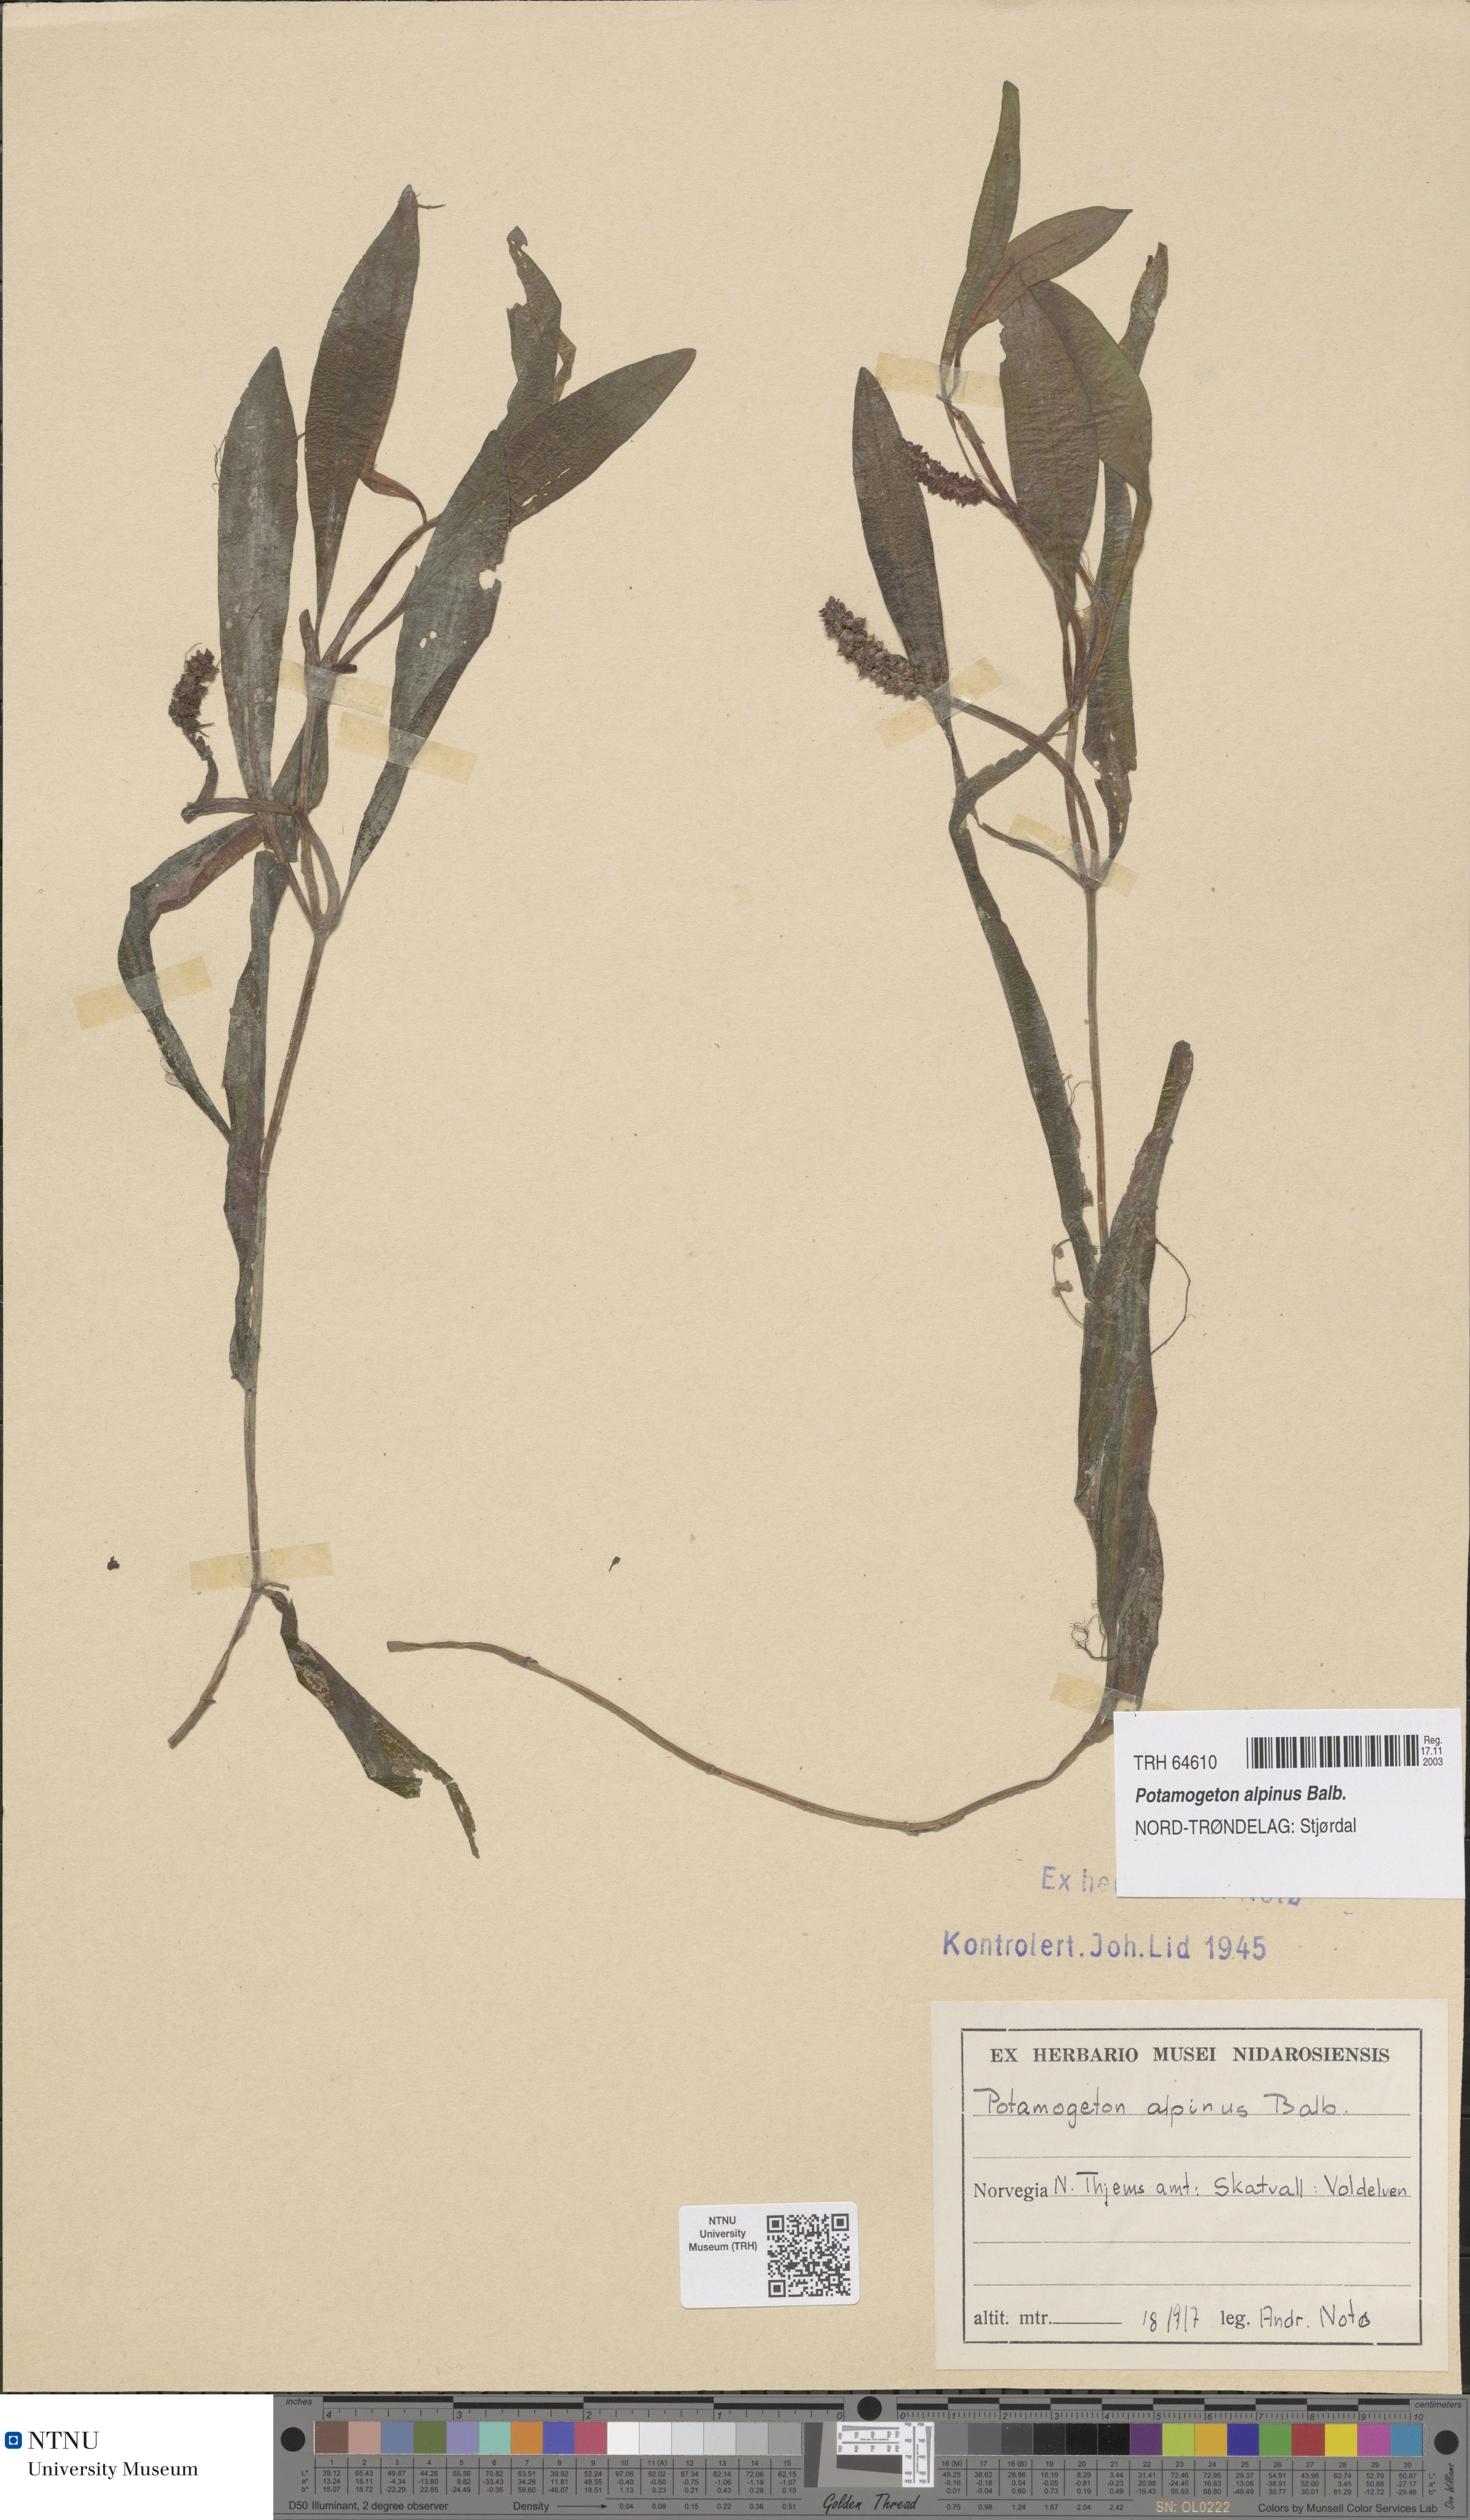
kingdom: Plantae
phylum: Tracheophyta
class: Liliopsida
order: Alismatales
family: Potamogetonaceae
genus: Potamogeton
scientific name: Potamogeton alpinus
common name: Red pondweed
